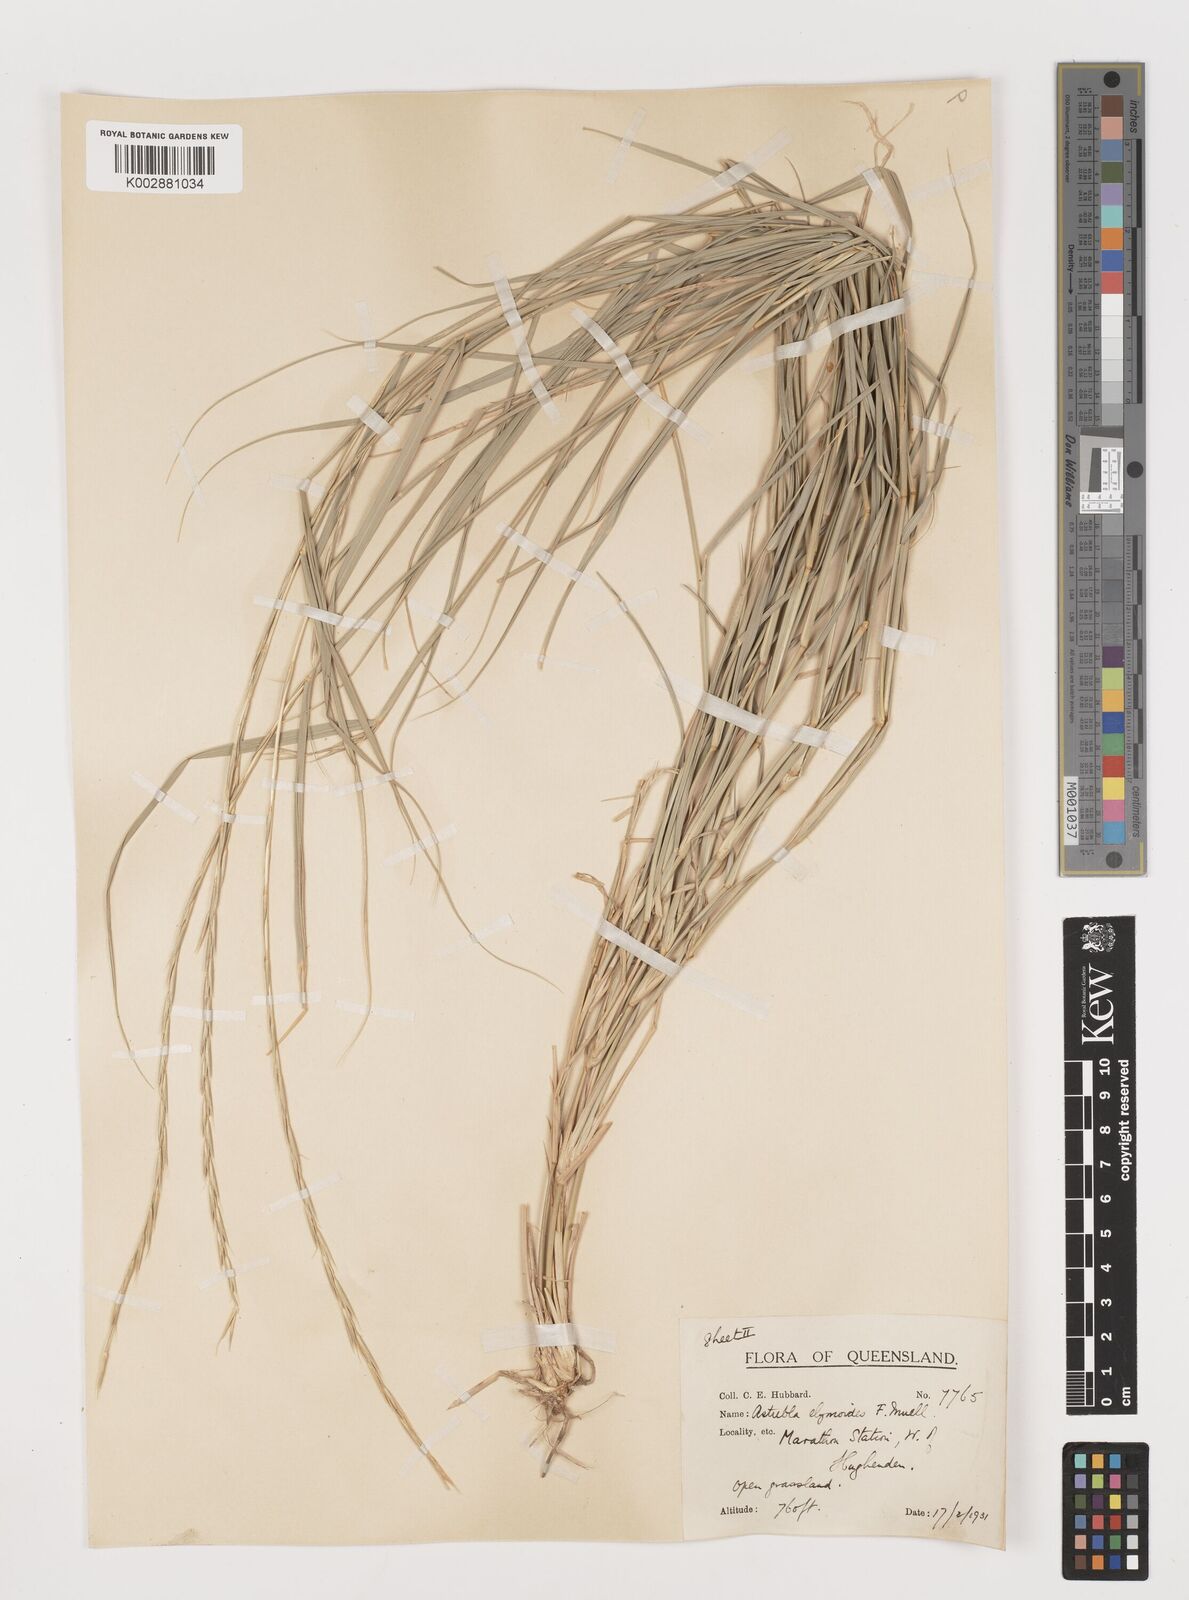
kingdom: Plantae
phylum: Tracheophyta
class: Liliopsida
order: Poales
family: Poaceae
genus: Astrebla
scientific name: Astrebla elymoides
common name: Hoop mitchell grass
